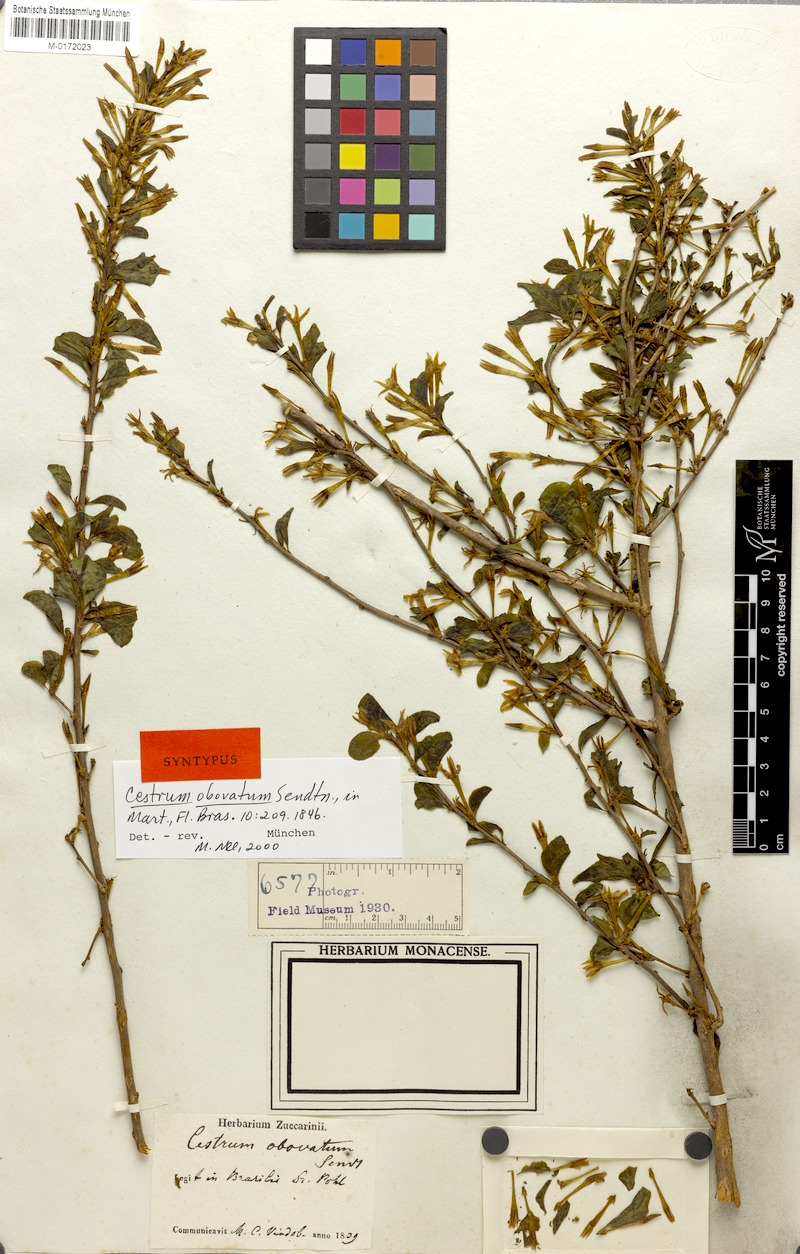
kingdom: Plantae
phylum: Tracheophyta
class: Magnoliopsida
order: Solanales
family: Solanaceae
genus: Cestrum
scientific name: Cestrum obovatum
